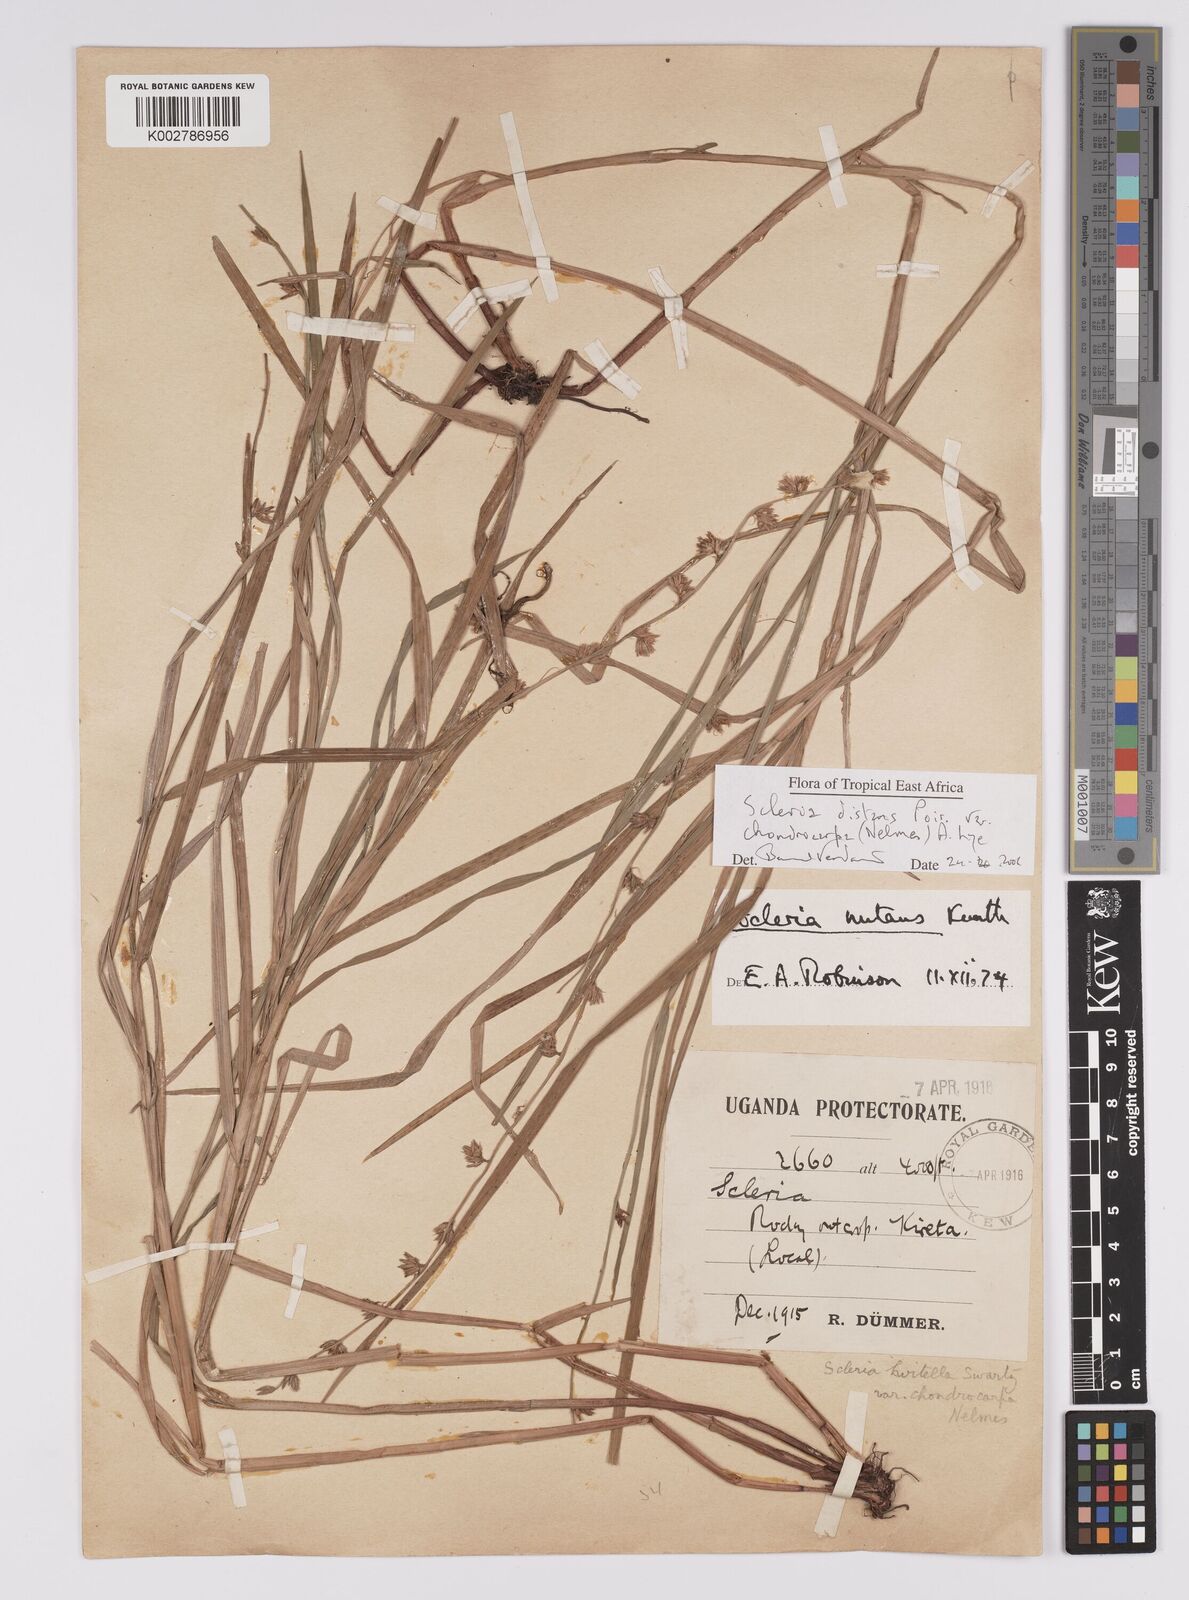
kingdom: Plantae
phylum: Tracheophyta
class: Liliopsida
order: Poales
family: Cyperaceae
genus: Scleria
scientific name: Scleria distans
